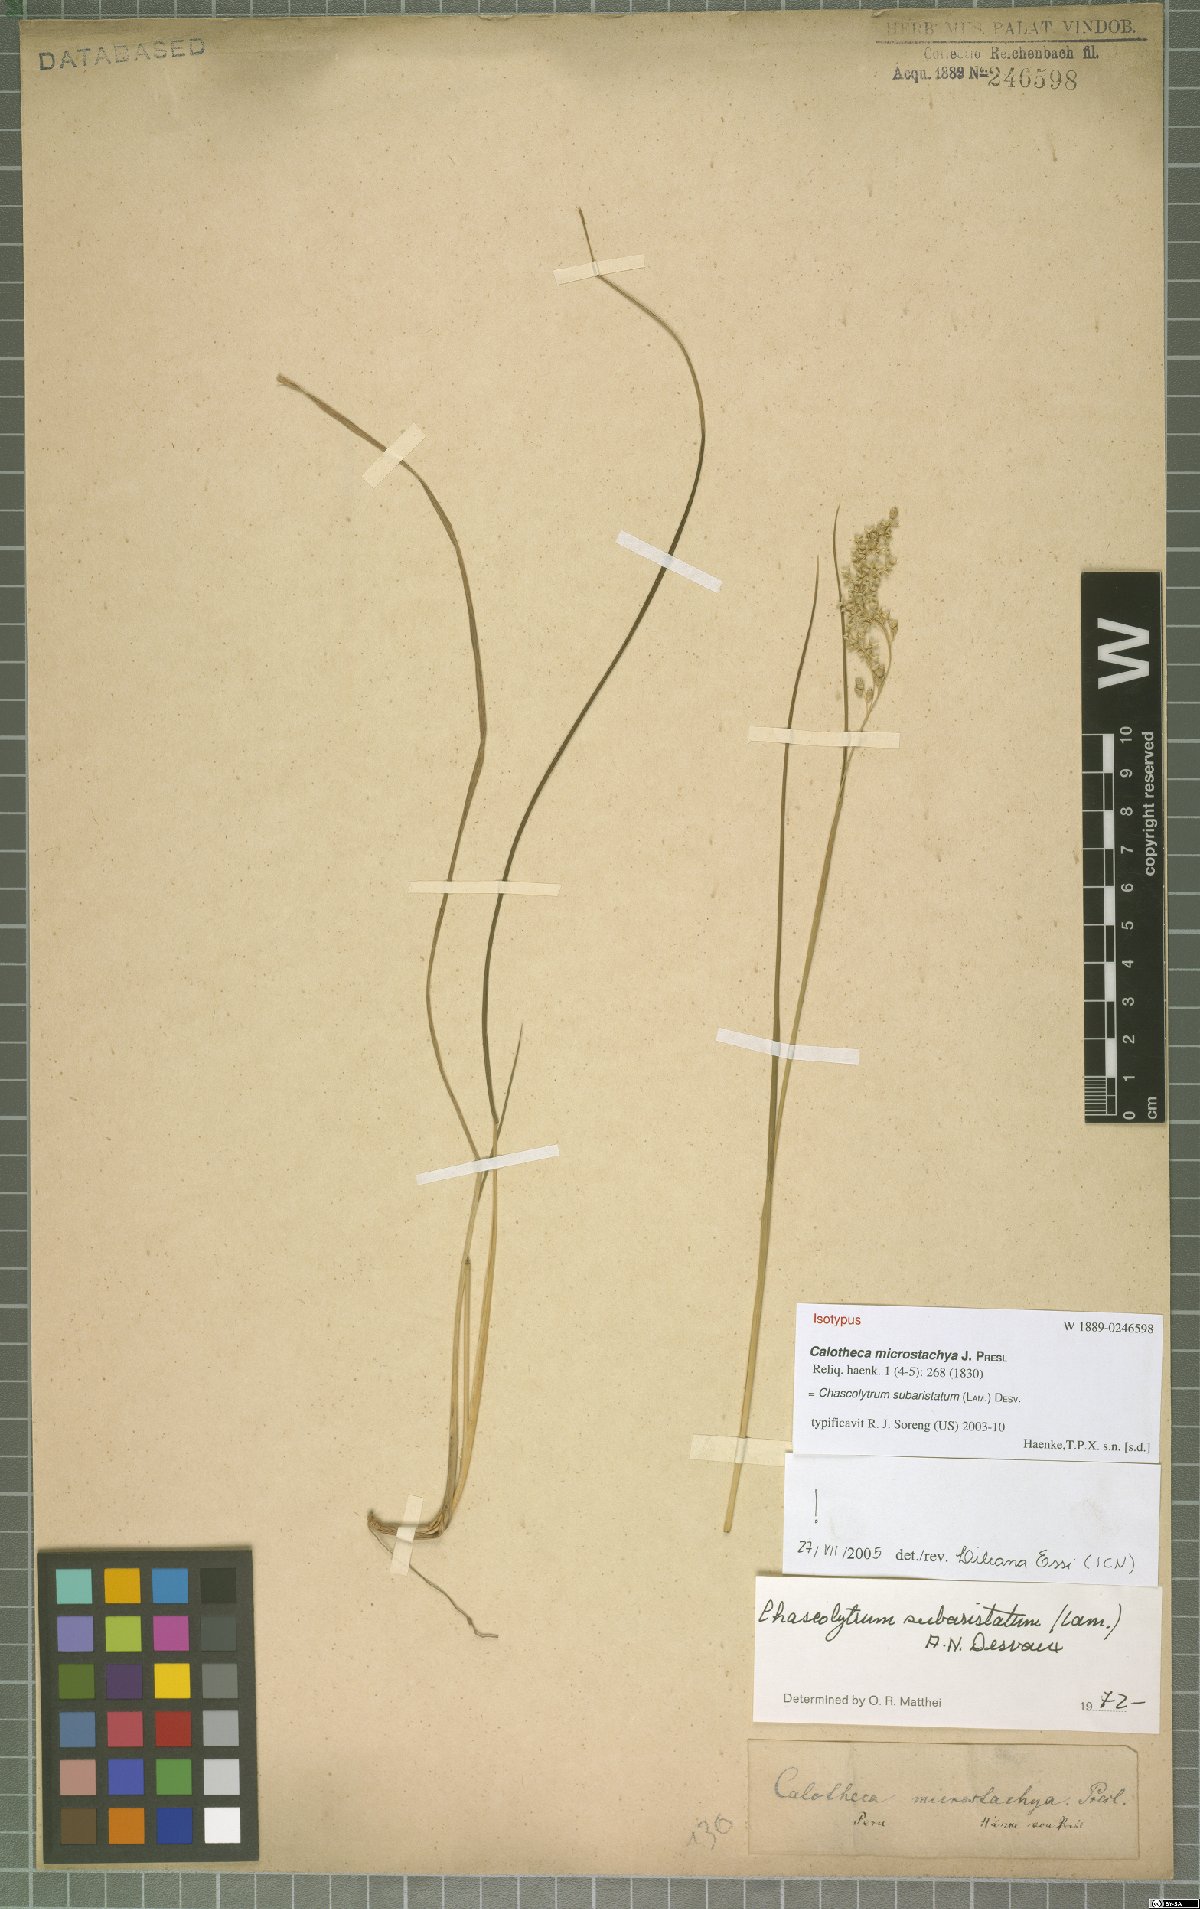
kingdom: Plantae
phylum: Tracheophyta
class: Liliopsida
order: Poales
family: Poaceae
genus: Chascolytrum
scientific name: Chascolytrum subaristatum
